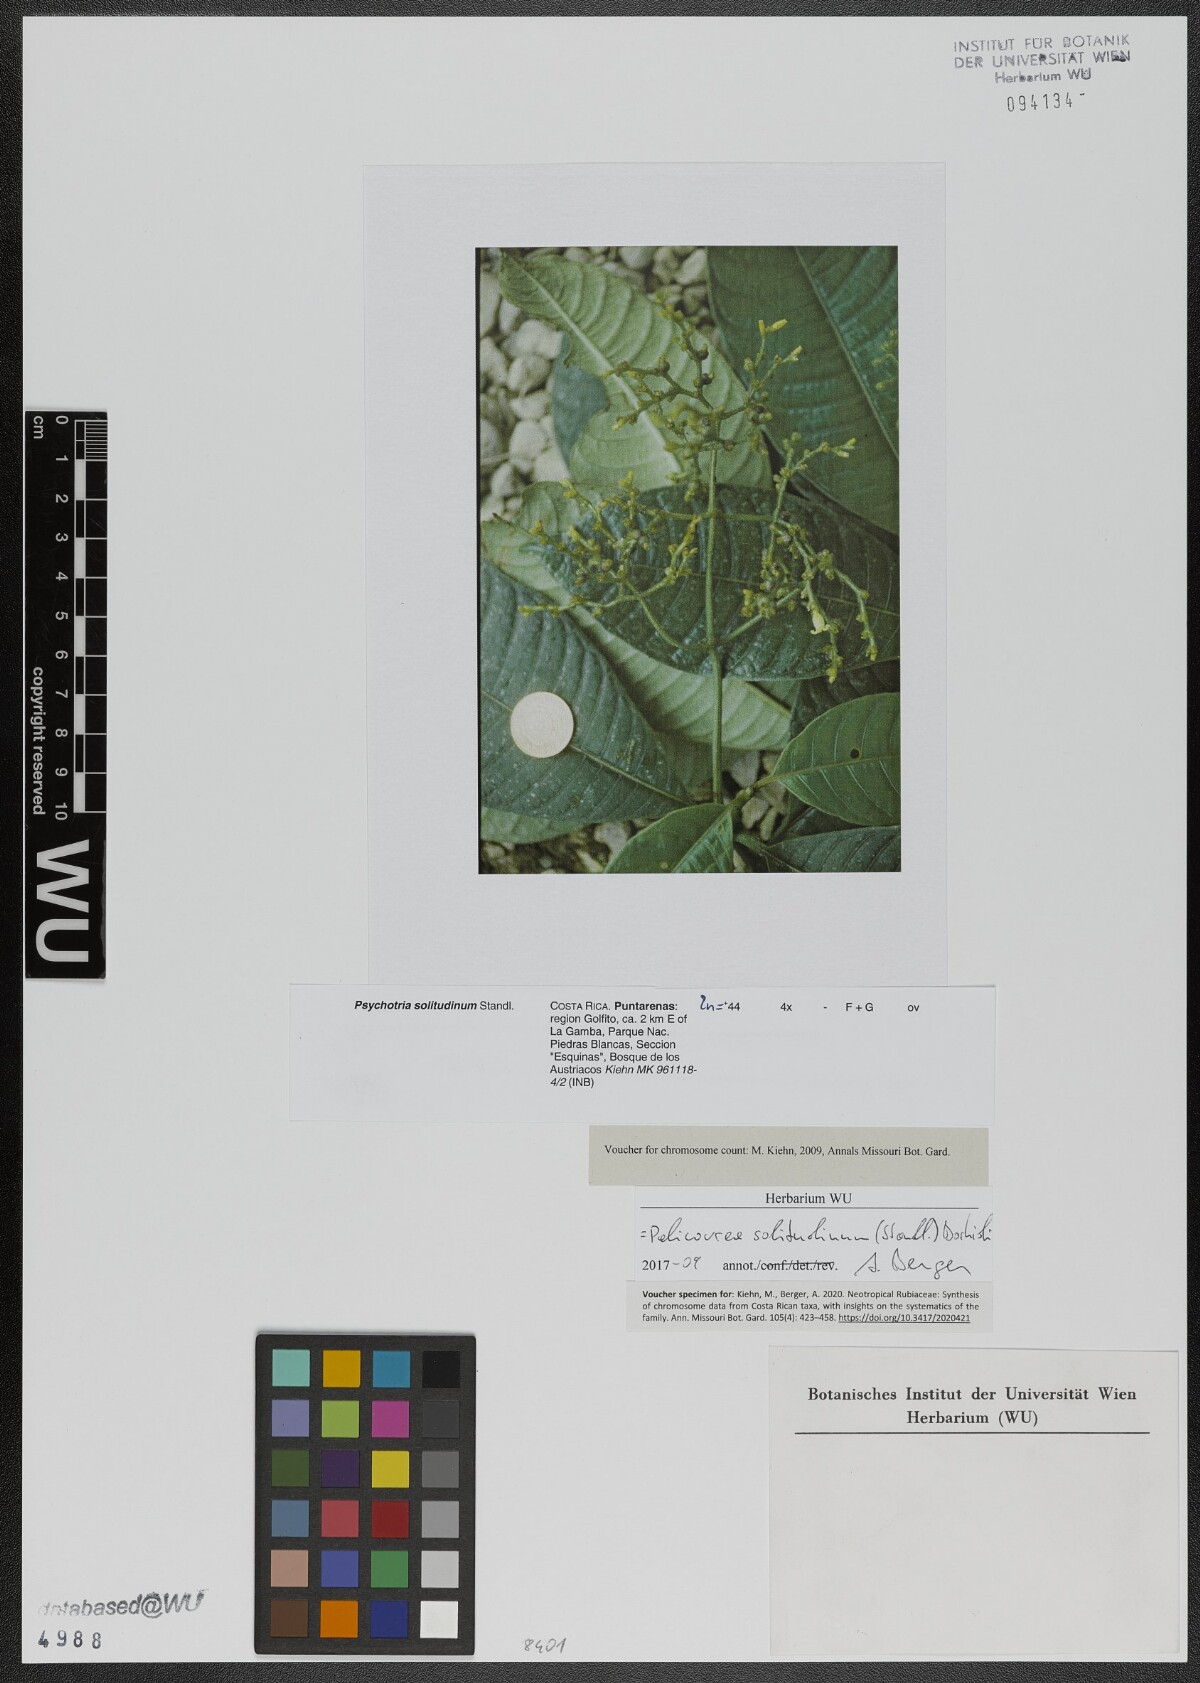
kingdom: Plantae
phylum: Tracheophyta
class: Magnoliopsida
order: Gentianales
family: Rubiaceae
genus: Palicourea
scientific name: Palicourea solitudinum
